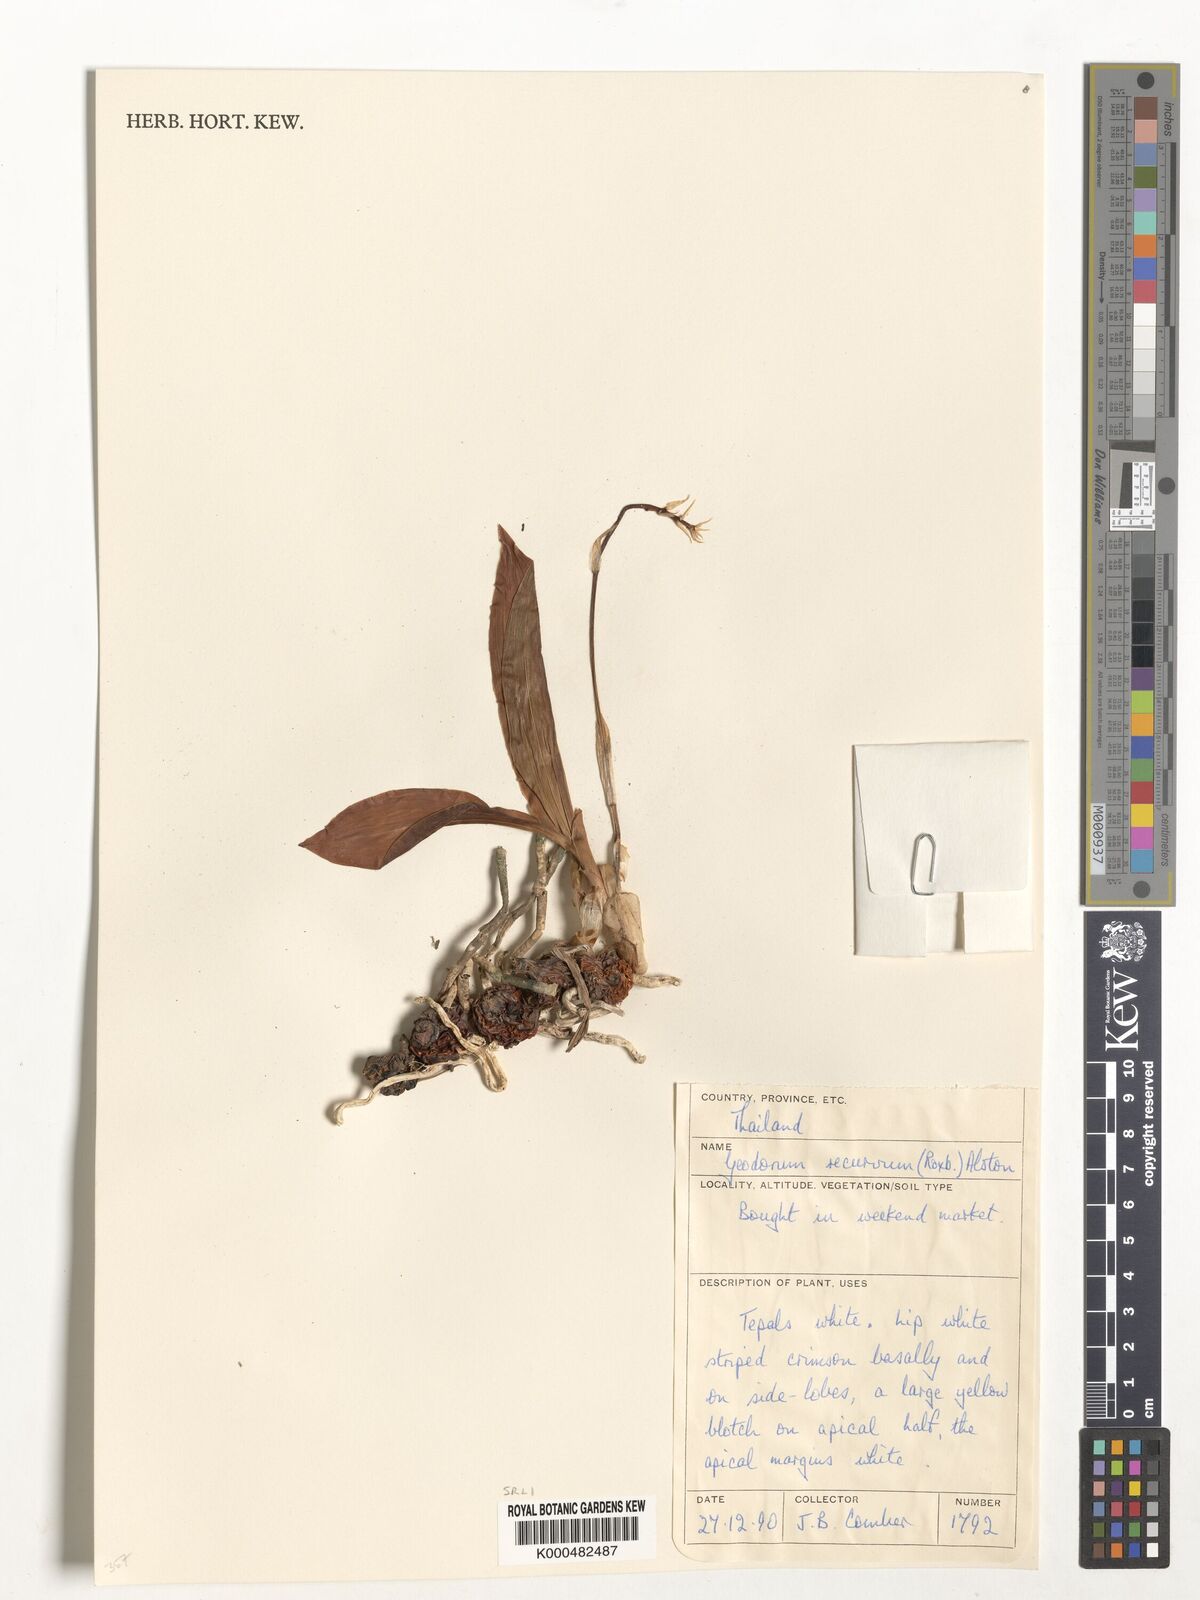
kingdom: Plantae
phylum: Tracheophyta
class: Liliopsida
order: Asparagales
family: Orchidaceae
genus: Eulophia
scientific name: Eulophia recurva
